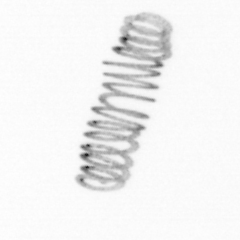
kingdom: Chromista
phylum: Ochrophyta
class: Bacillariophyceae
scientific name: Bacillariophyceae
